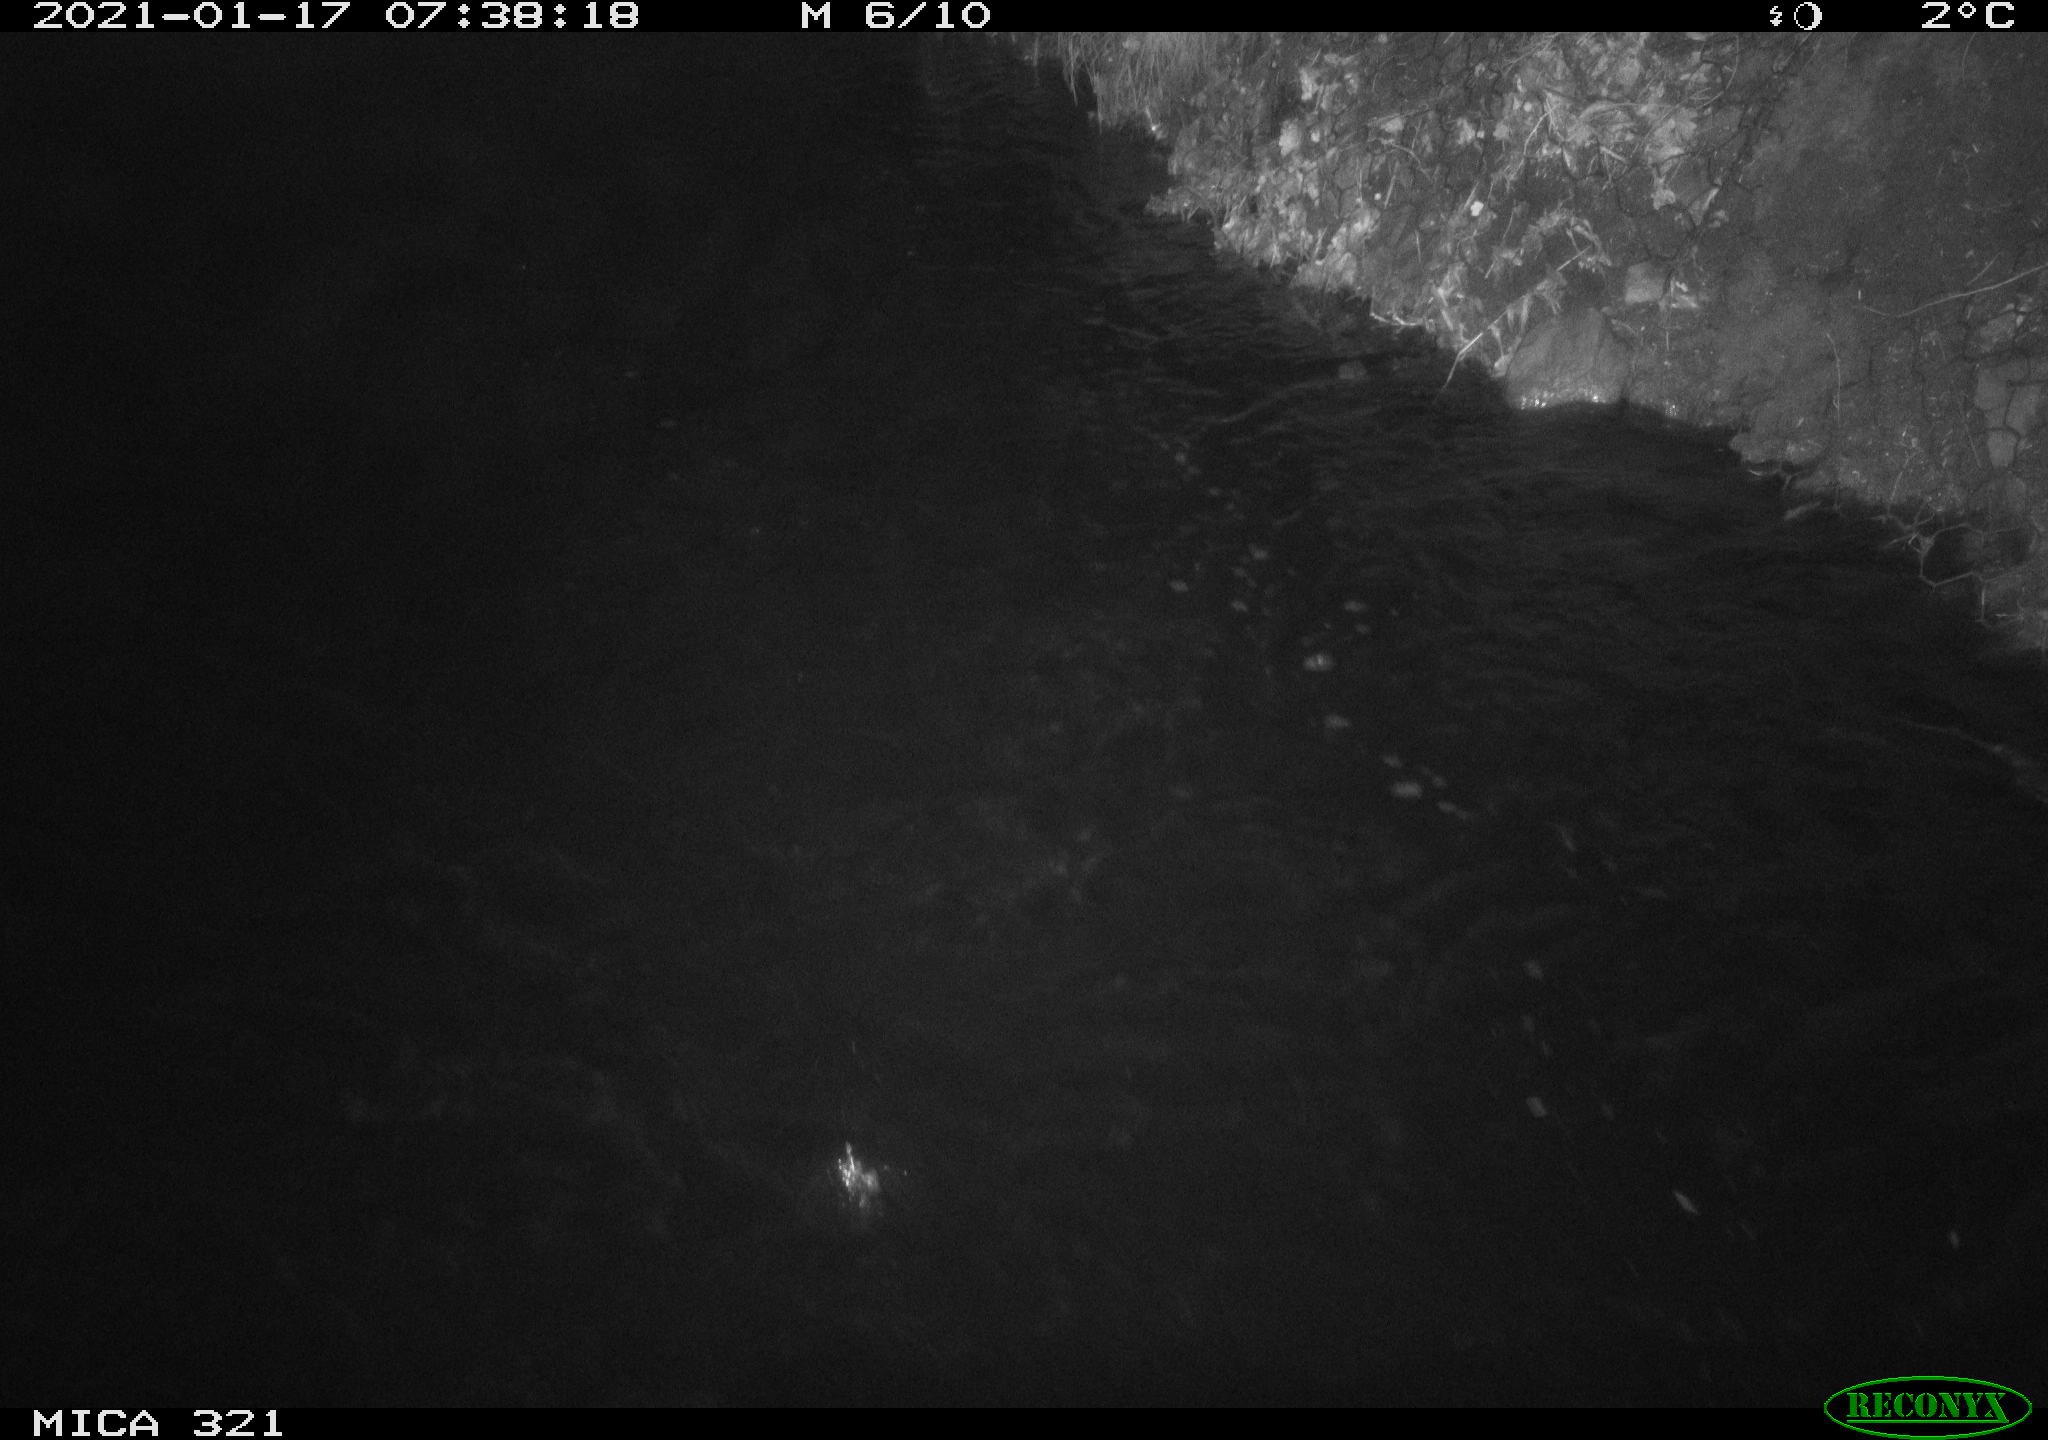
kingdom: Animalia
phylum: Chordata
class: Aves
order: Anseriformes
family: Anatidae
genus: Anas
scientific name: Anas platyrhynchos
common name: Mallard
